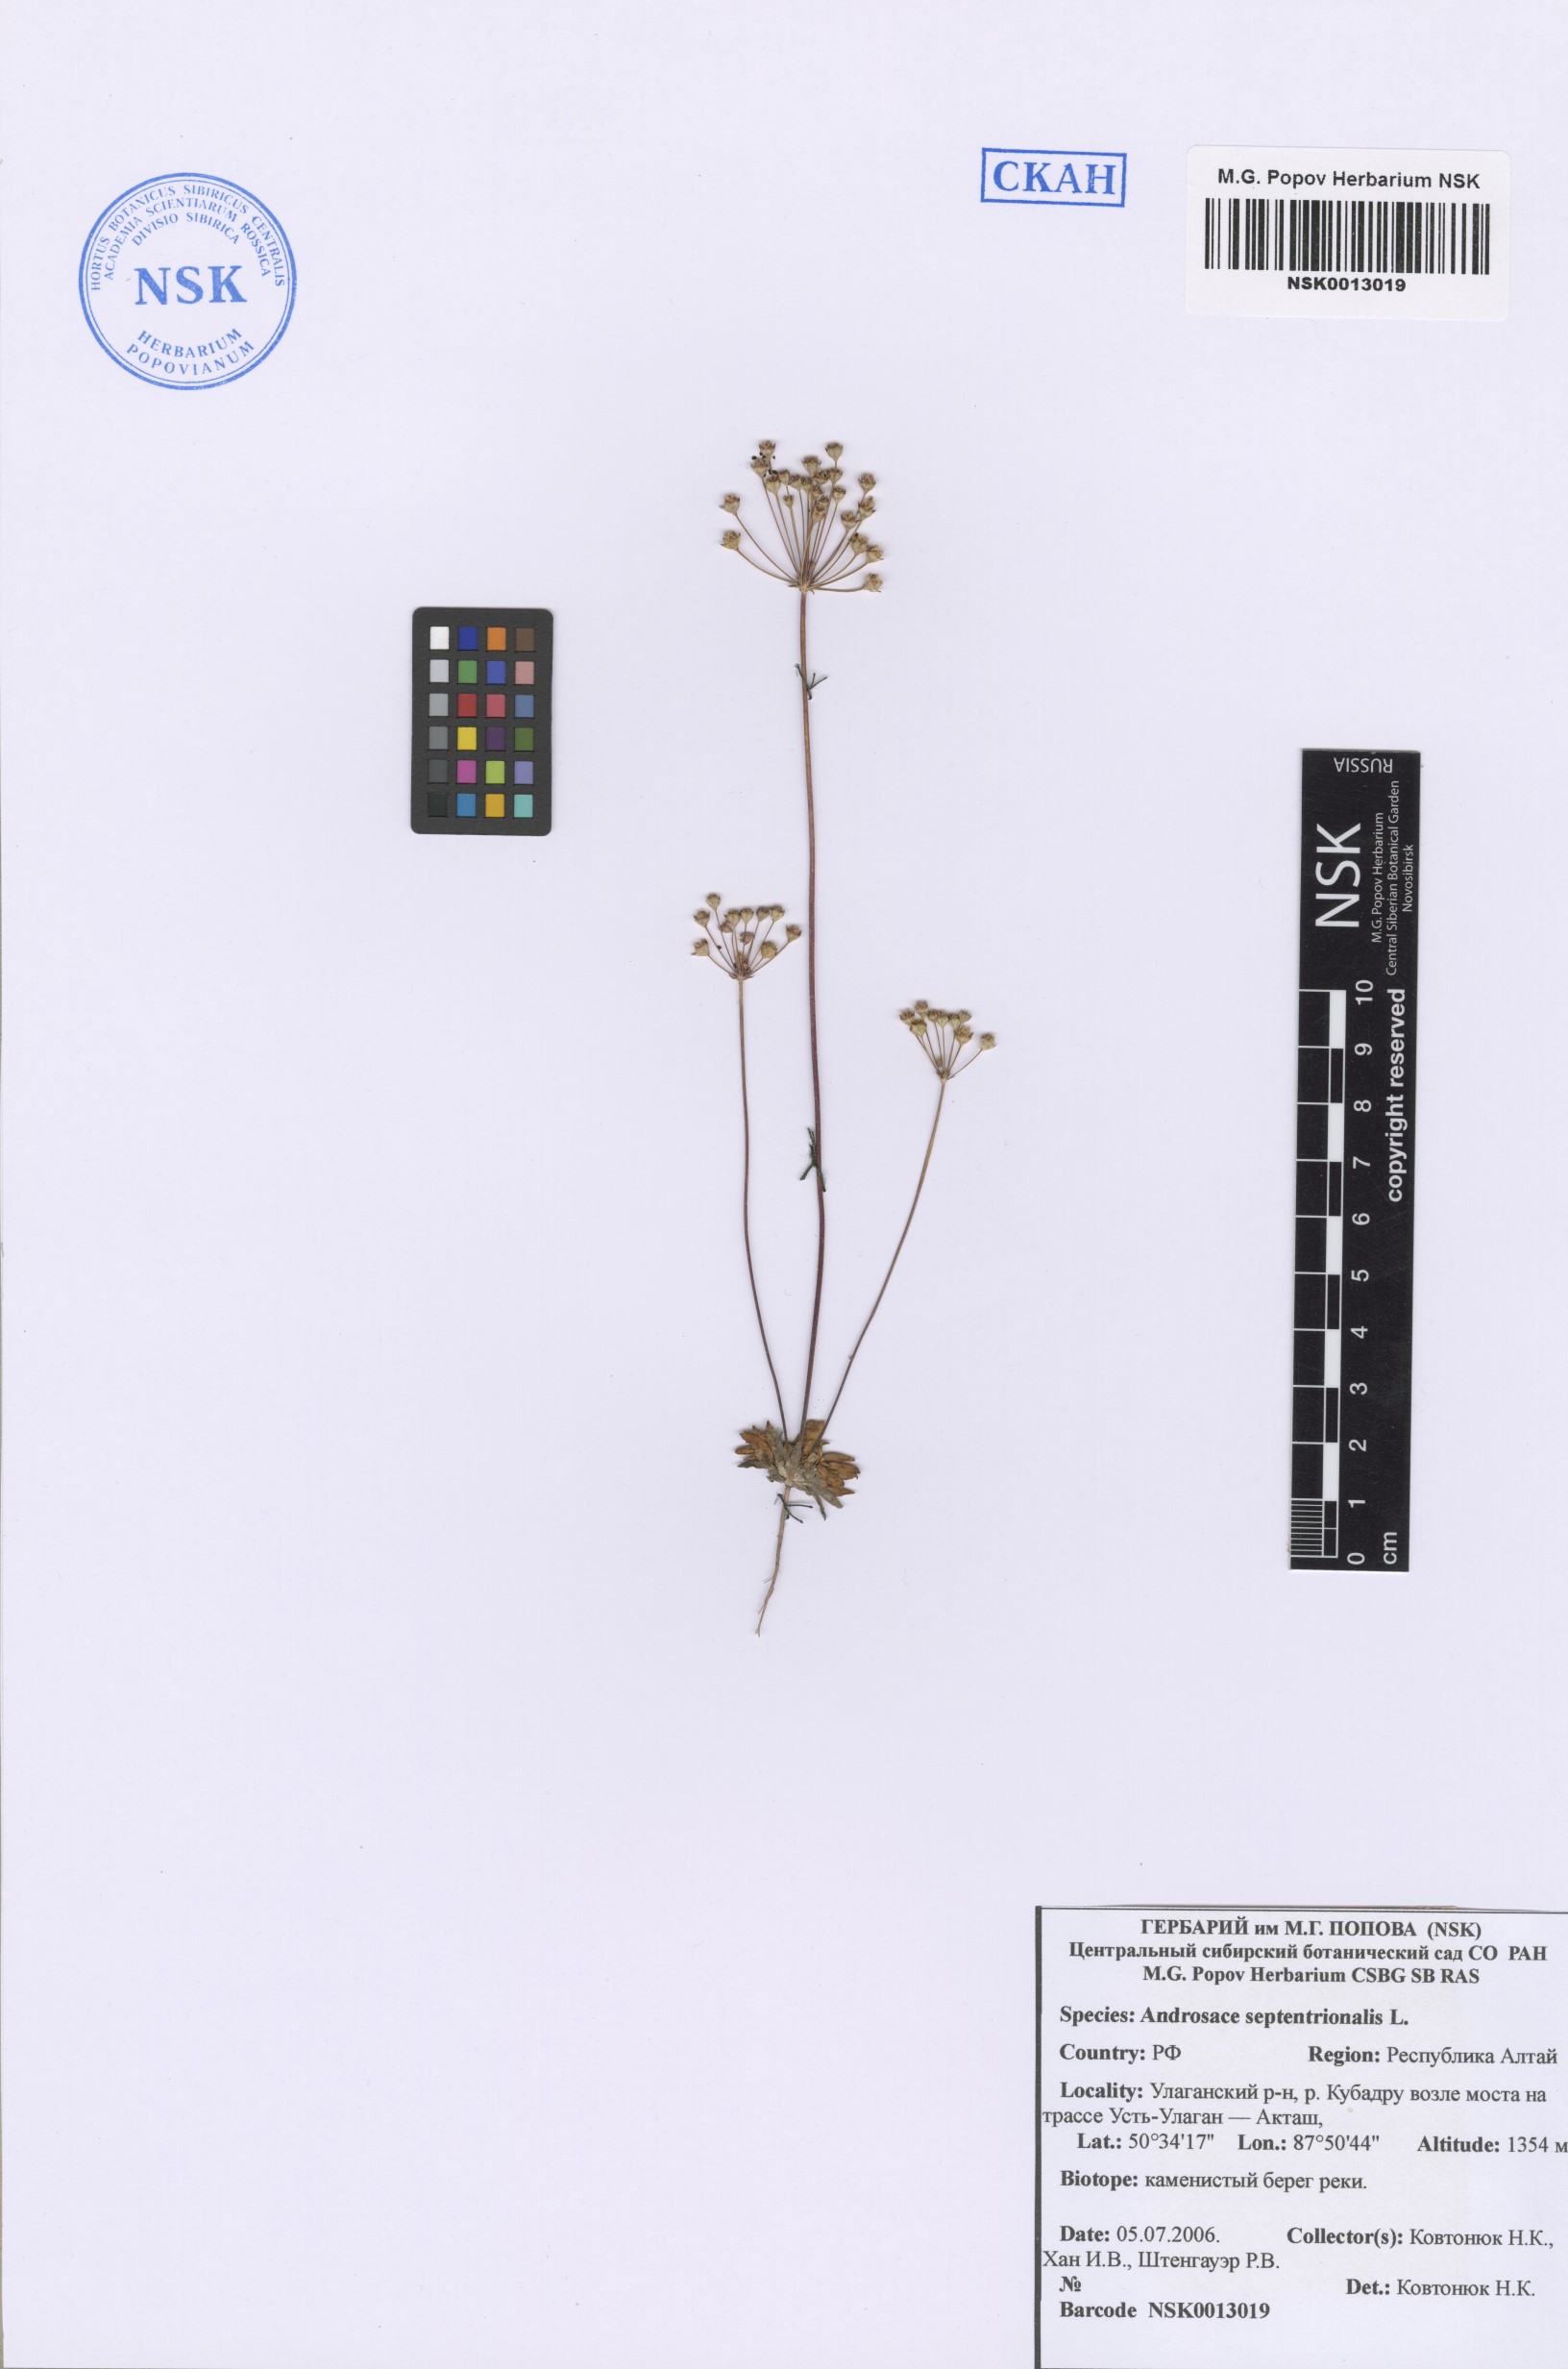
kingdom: Plantae
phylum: Tracheophyta
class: Magnoliopsida
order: Ericales
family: Primulaceae
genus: Androsace
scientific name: Androsace septentrionalis
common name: Hairy northern fairy-candelabra
